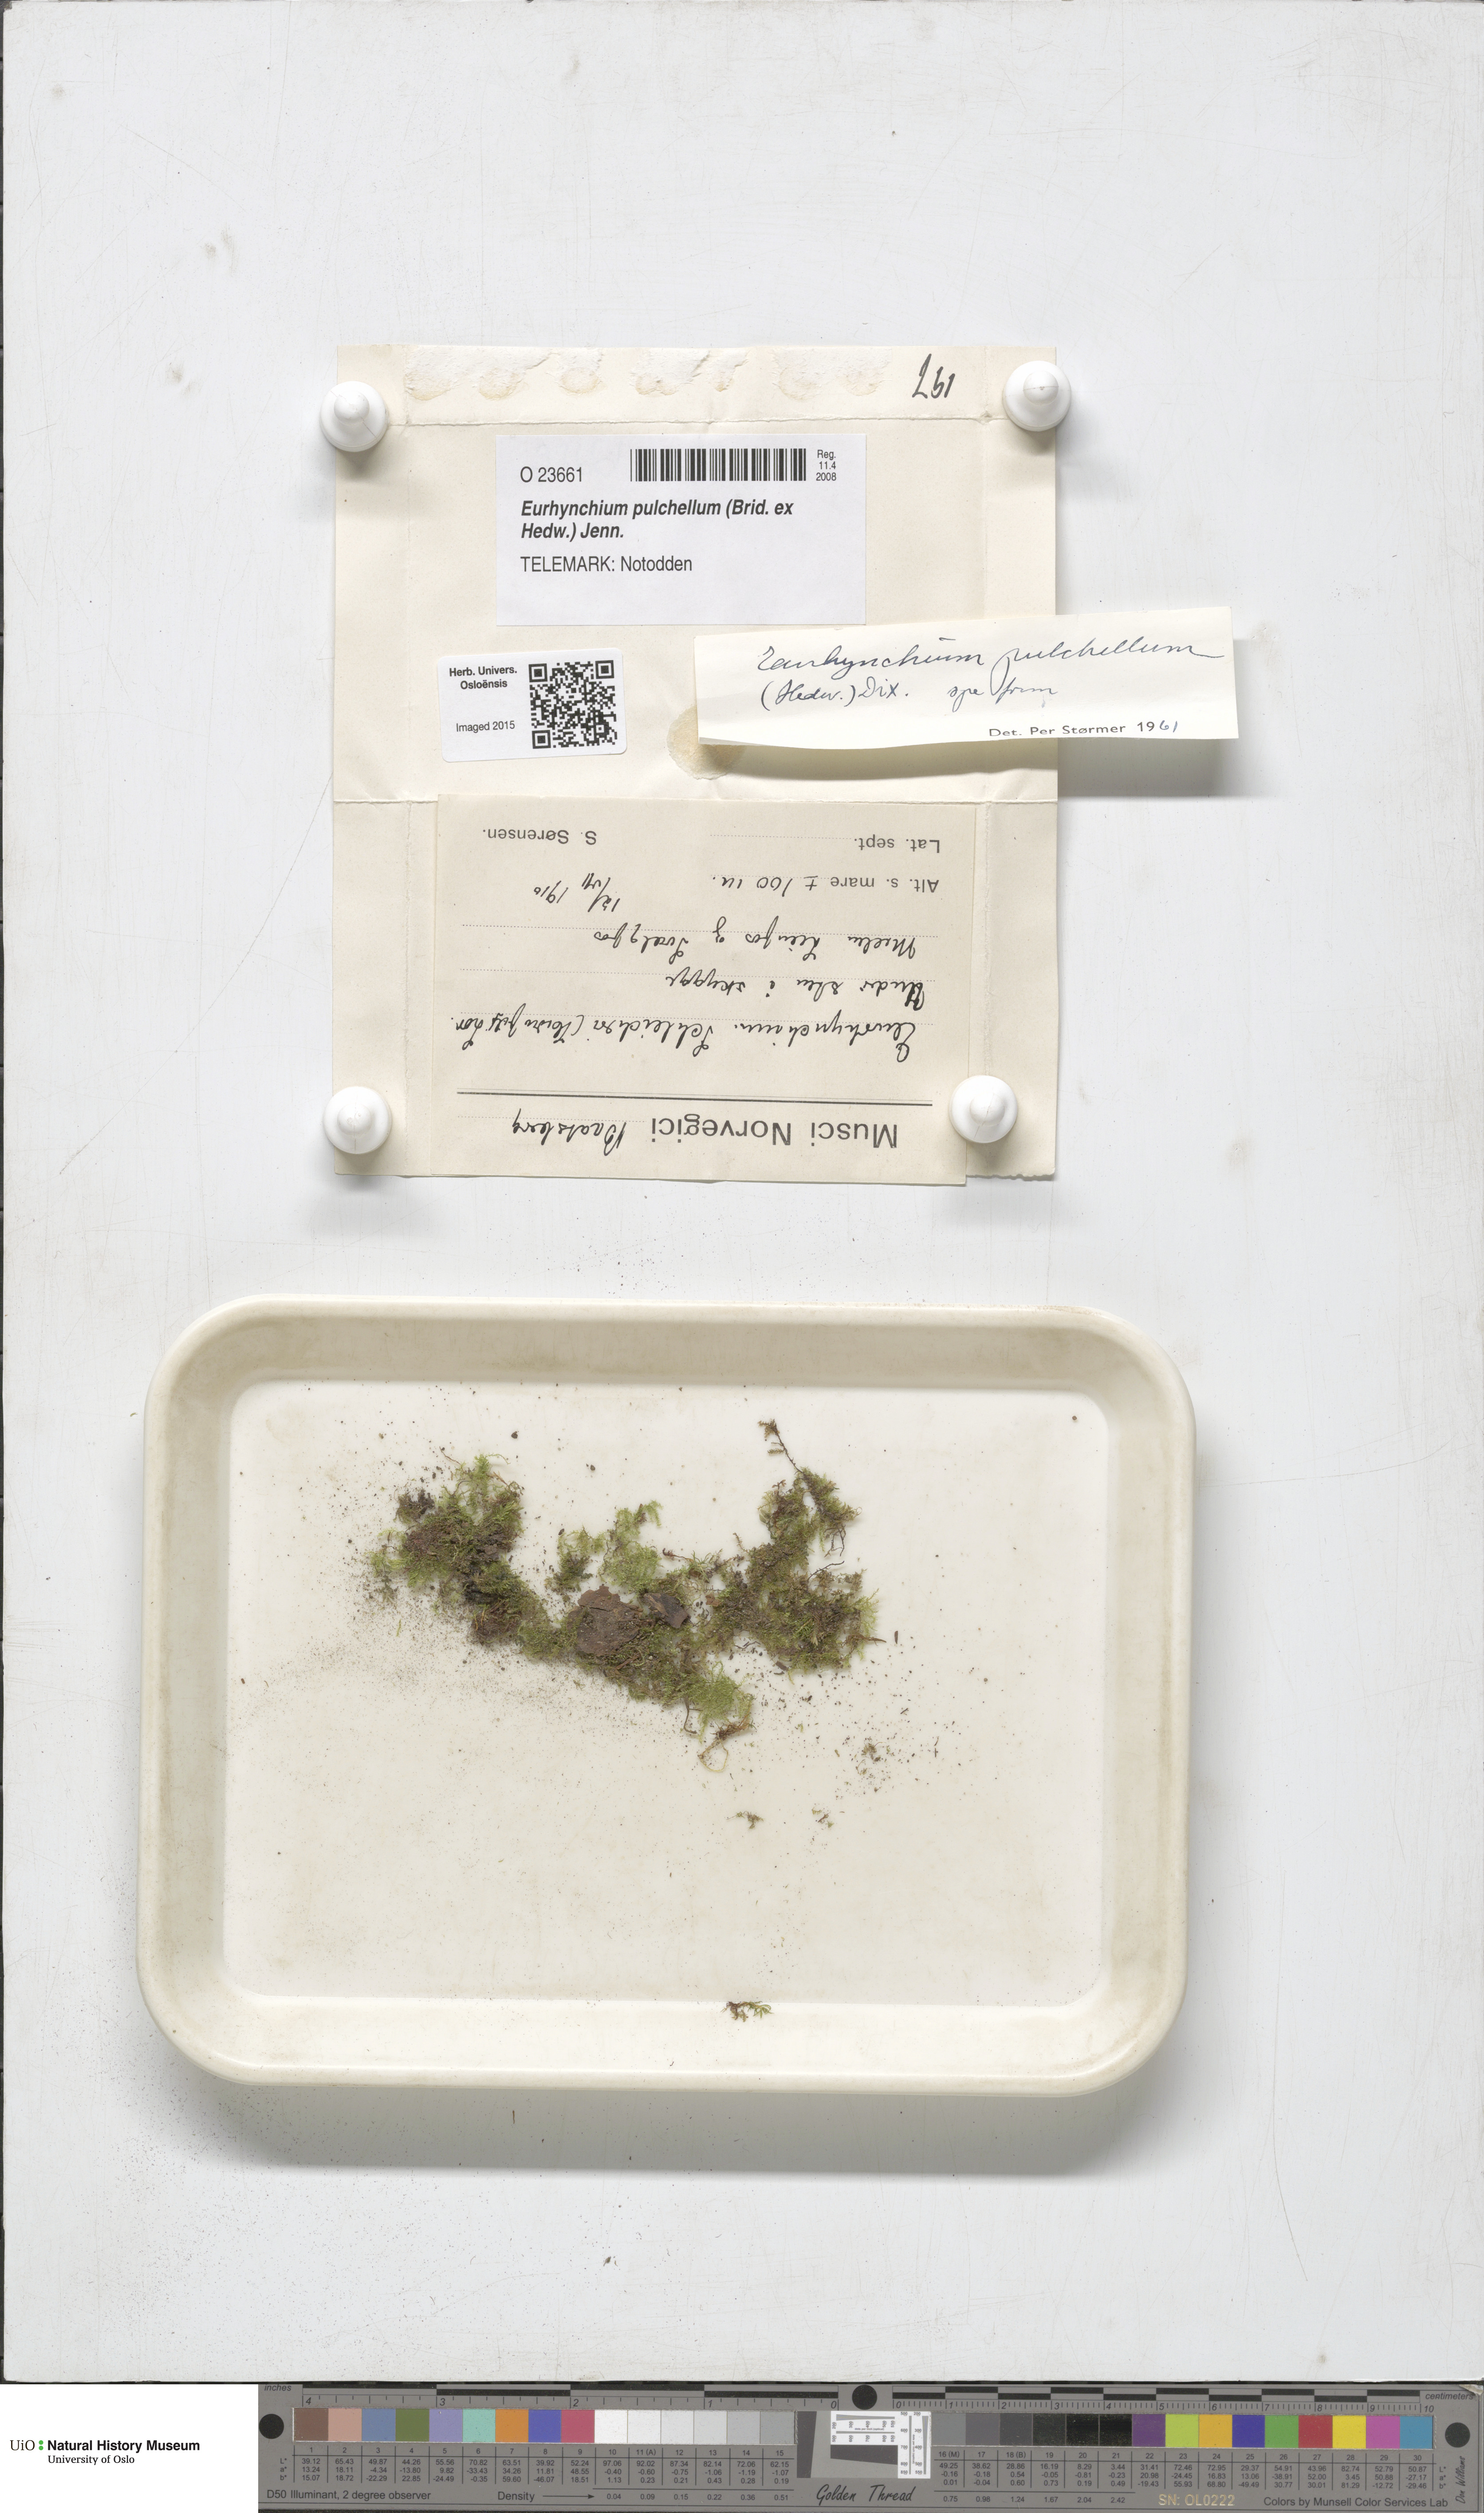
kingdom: Plantae
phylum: Bryophyta
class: Bryopsida
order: Hypnales
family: Brachytheciaceae
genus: Eurhynchiastrum
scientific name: Eurhynchiastrum pulchellum
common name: Elegant beaked moss
